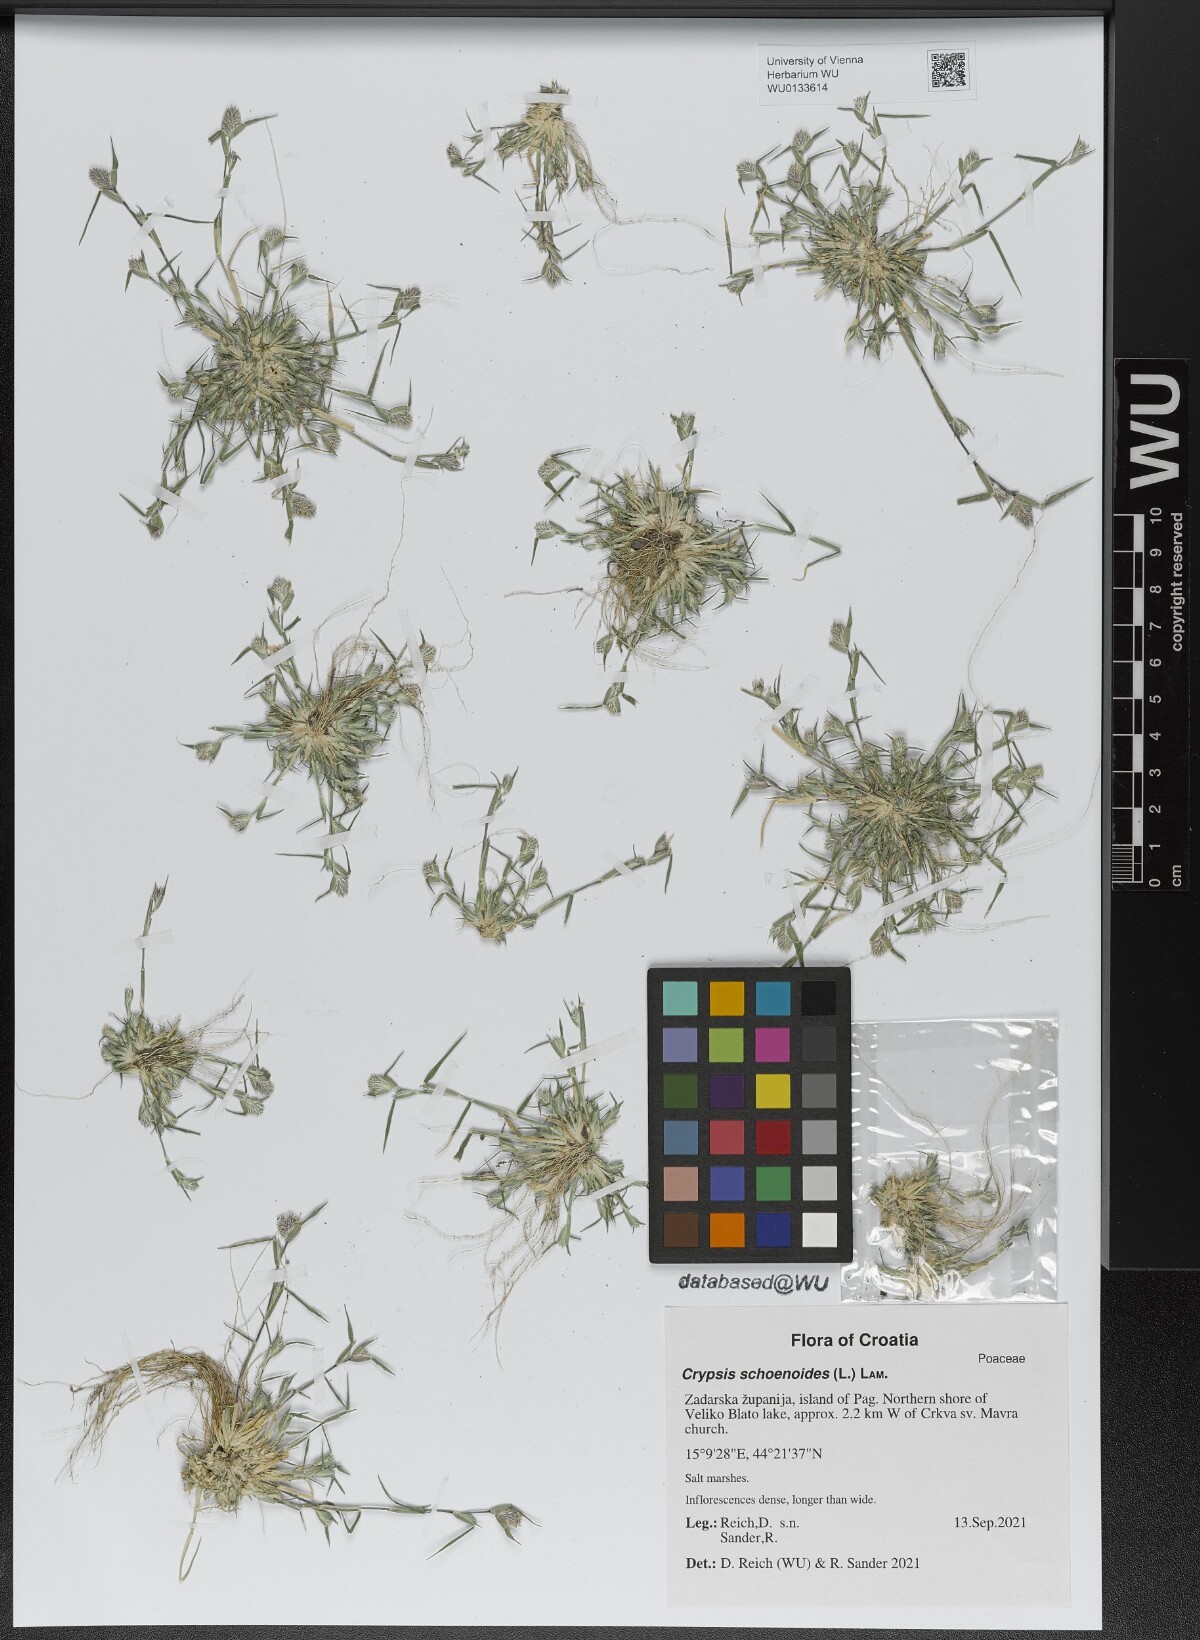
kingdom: Plantae
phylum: Tracheophyta
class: Liliopsida
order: Poales
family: Poaceae
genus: Sporobolus
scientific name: Sporobolus schoenoides
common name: Rush-like timothy
